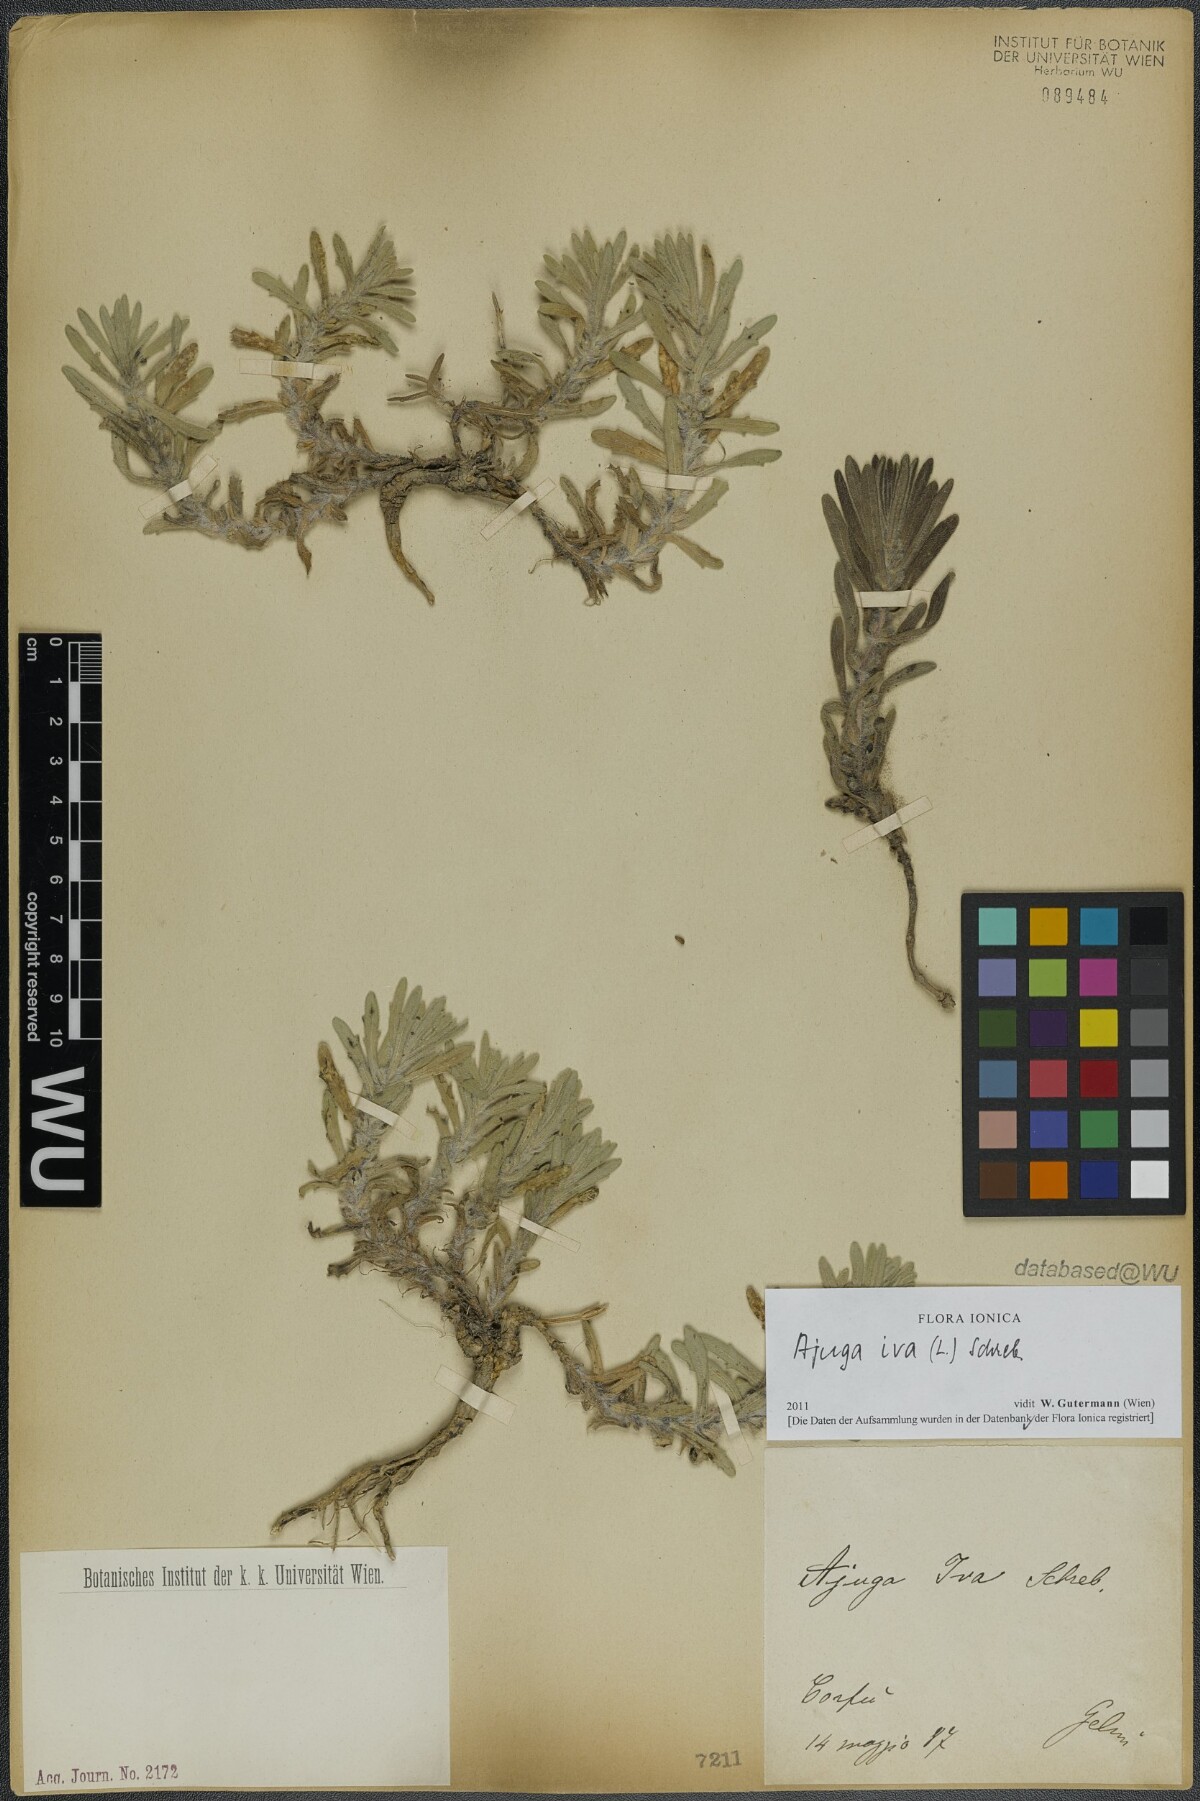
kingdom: Plantae
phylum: Tracheophyta
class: Magnoliopsida
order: Lamiales
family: Lamiaceae
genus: Ajuga
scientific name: Ajuga iva
